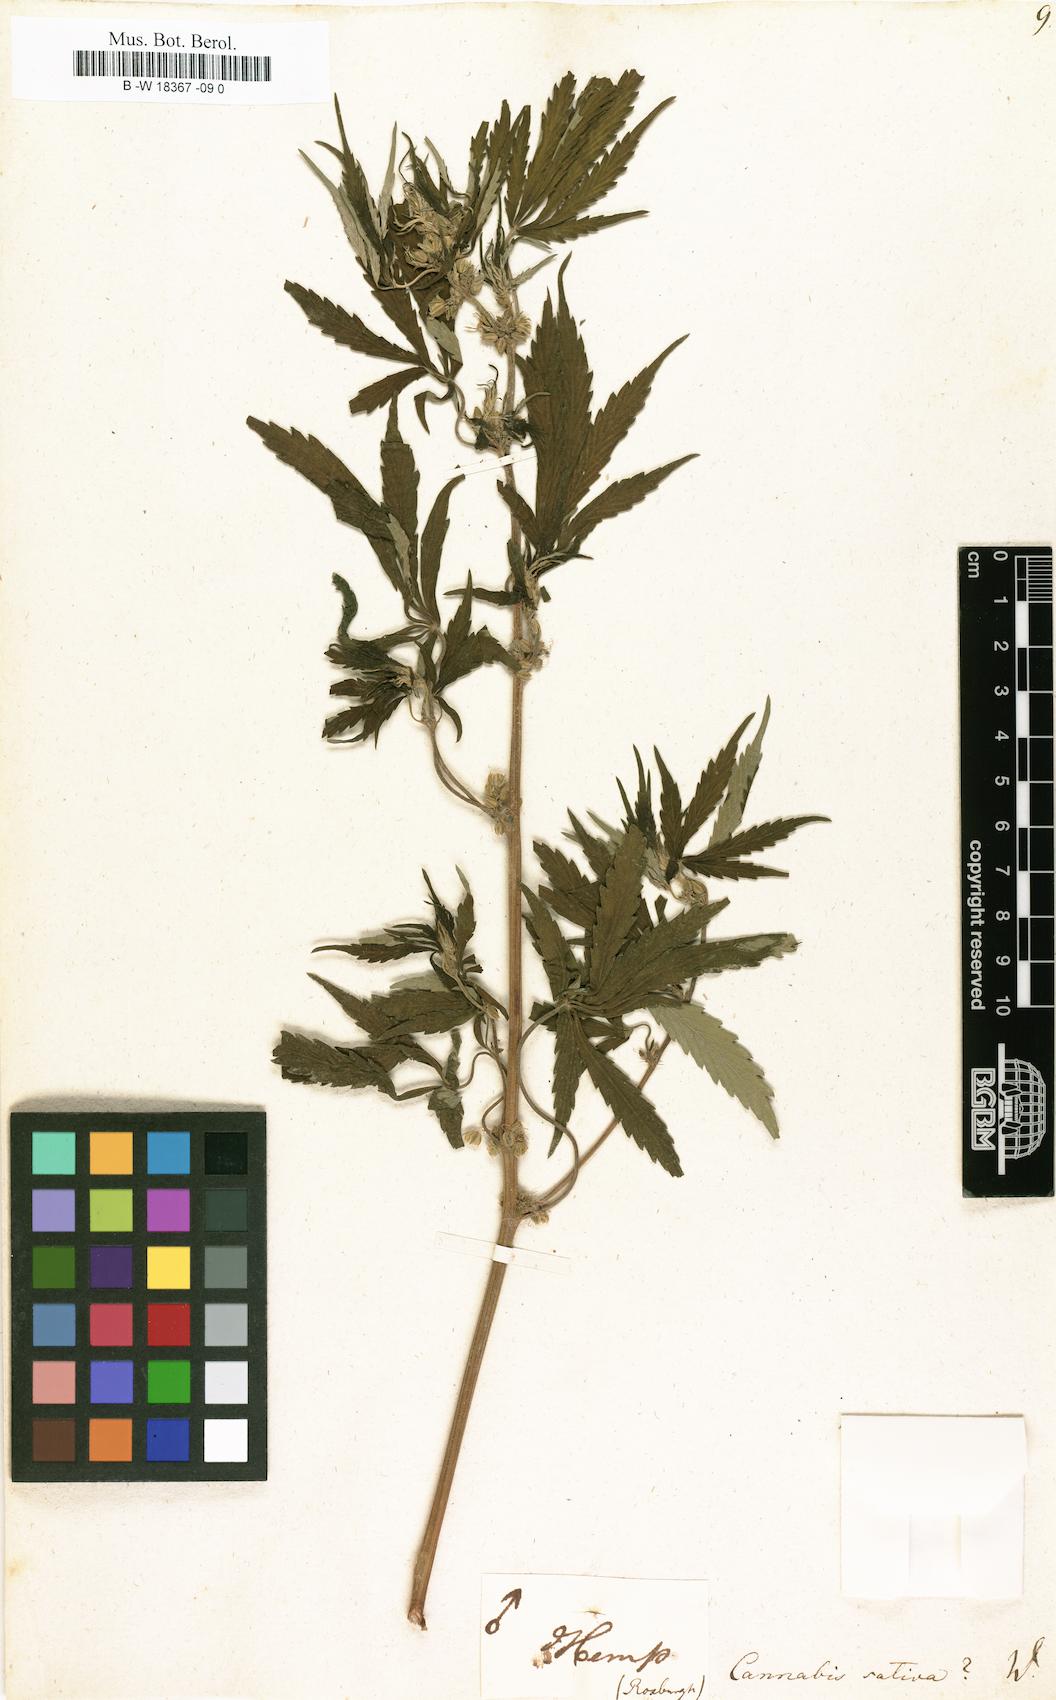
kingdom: Plantae
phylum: Tracheophyta
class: Magnoliopsida
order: Rosales
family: Cannabaceae
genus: Cannabis
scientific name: Cannabis sativa
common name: Hemp
